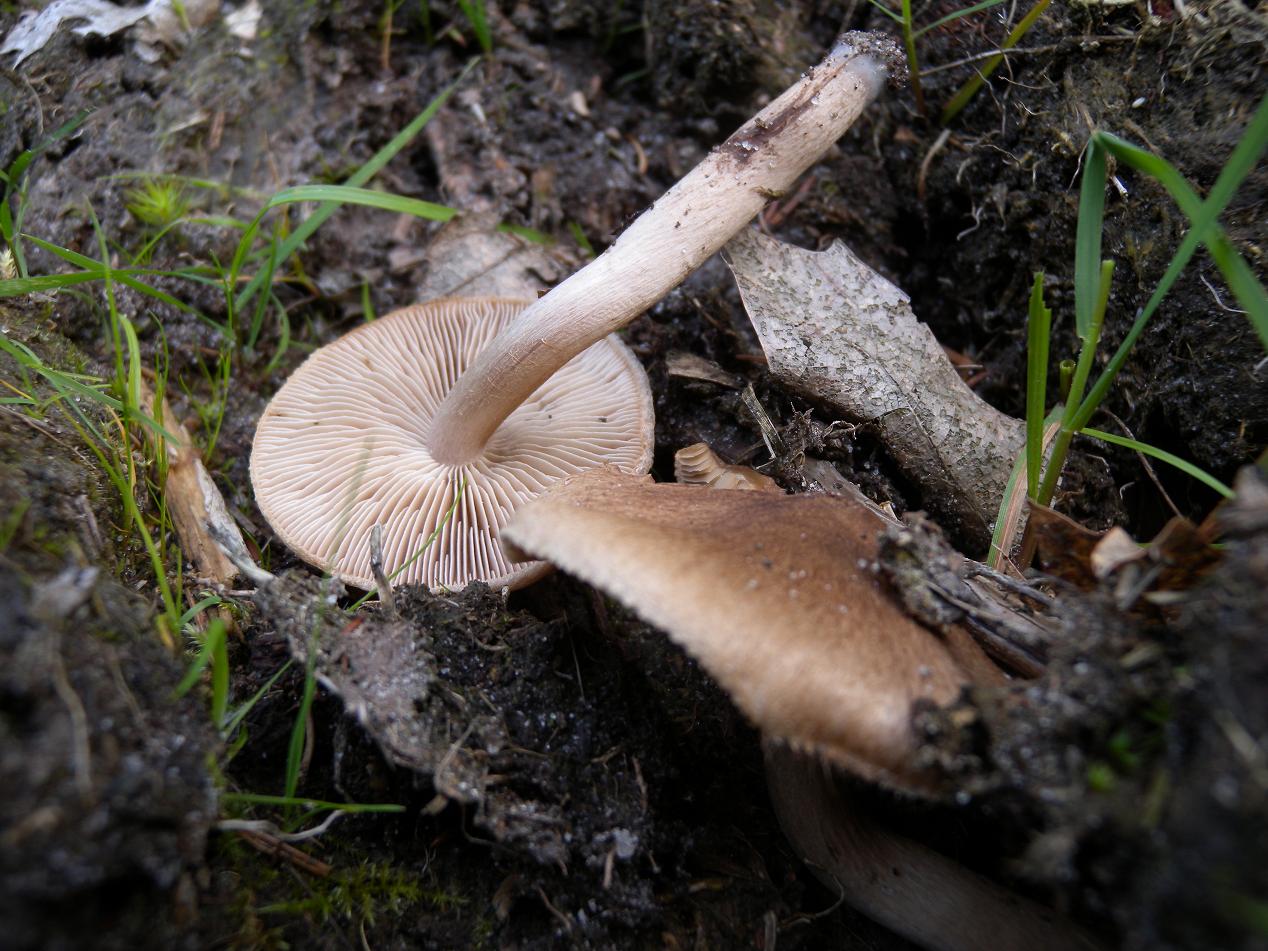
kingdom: Fungi
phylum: Basidiomycota
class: Agaricomycetes
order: Agaricales
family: Inocybaceae
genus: Inocybe
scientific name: Inocybe lacera
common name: laset trævlhat
